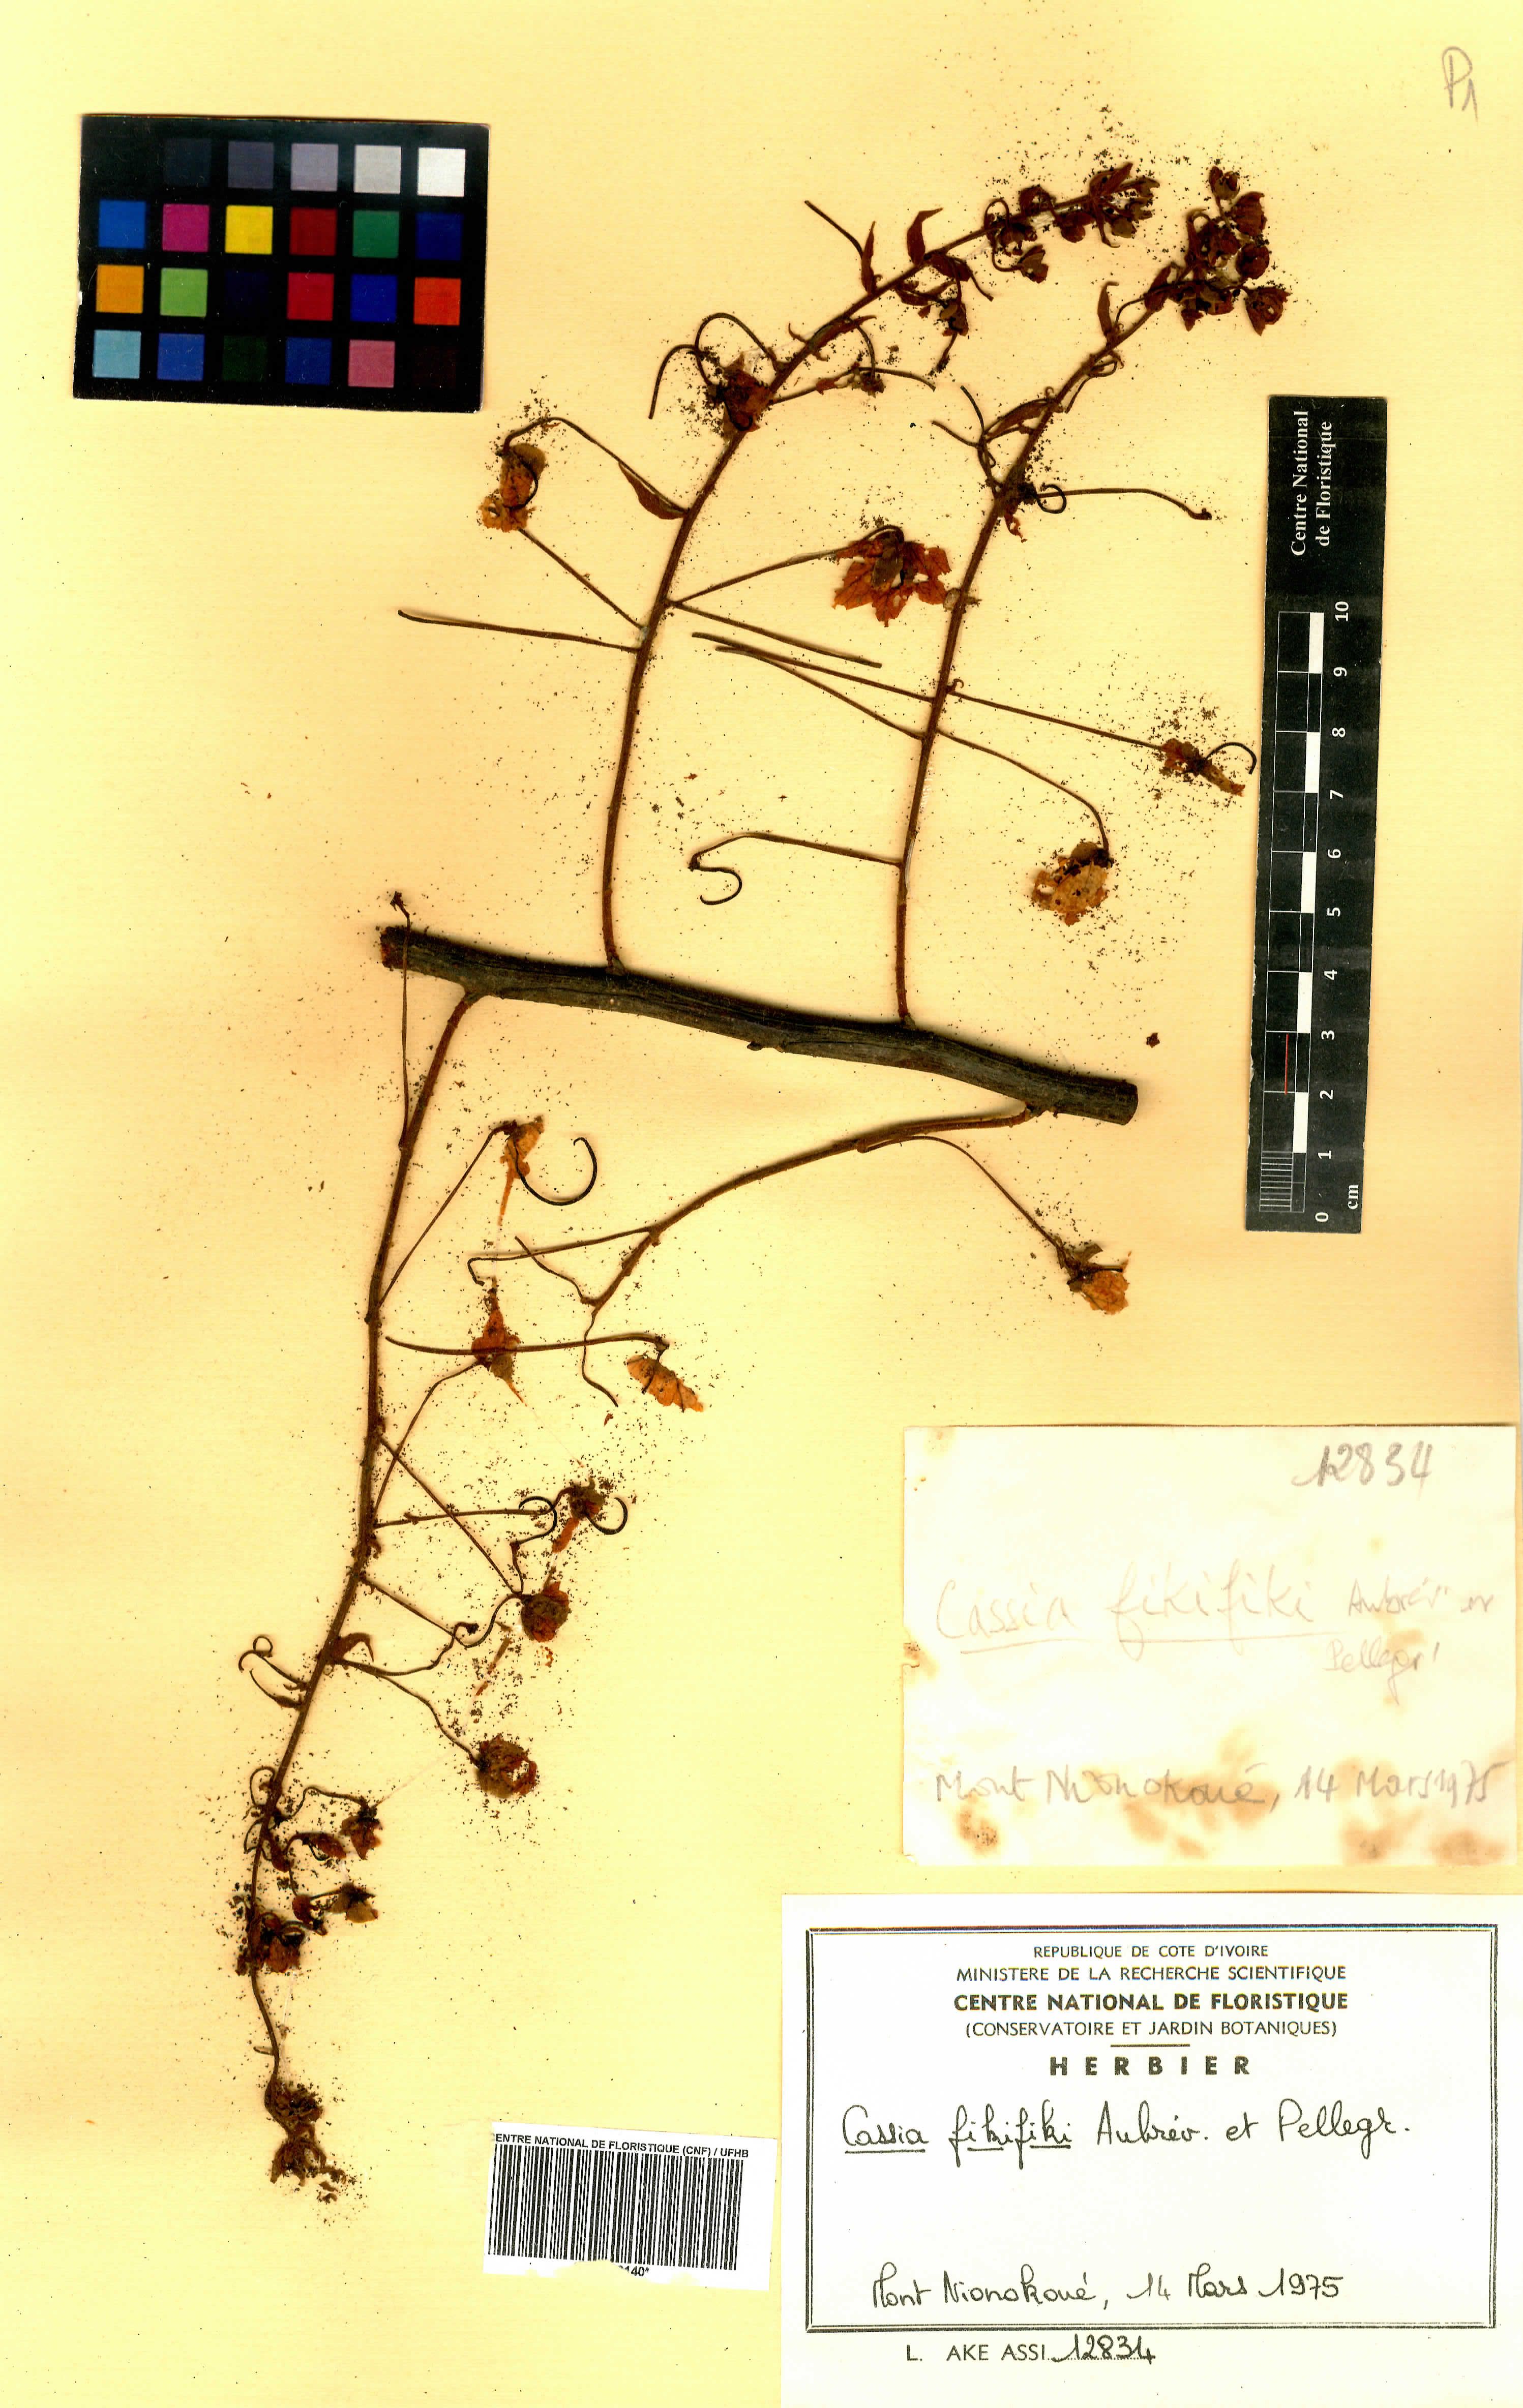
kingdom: Plantae
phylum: Tracheophyta
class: Magnoliopsida
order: Fabales
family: Fabaceae
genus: Cassia
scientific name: Cassia fikifiki
